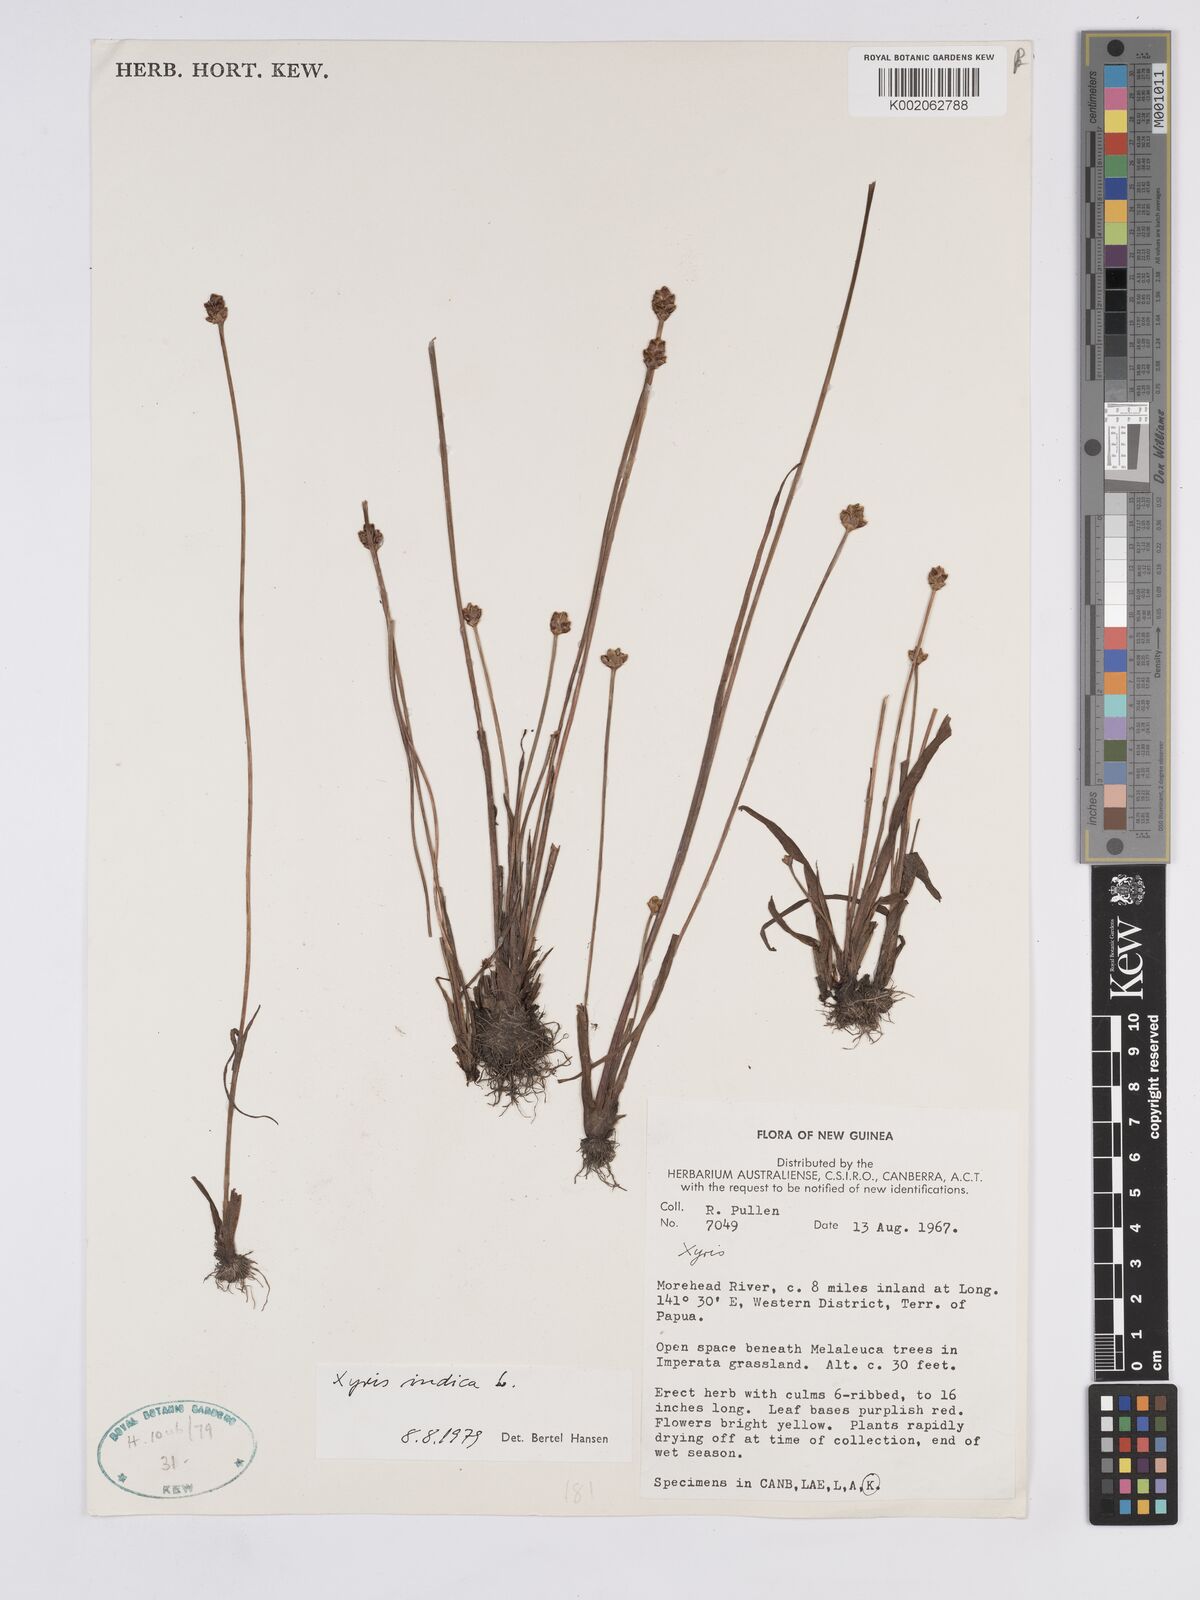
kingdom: Plantae
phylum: Tracheophyta
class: Liliopsida
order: Poales
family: Xyridaceae
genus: Xyris
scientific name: Xyris indica
